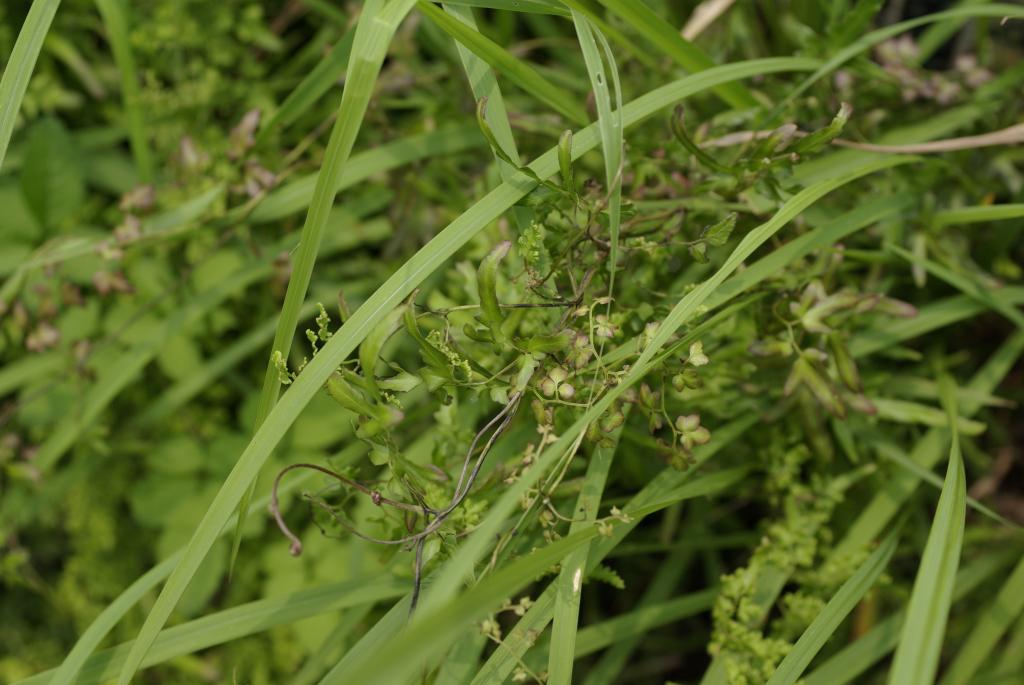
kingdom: Plantae
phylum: Tracheophyta
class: Polypodiopsida
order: Schizaeales
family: Lygodiaceae
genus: Lygodium
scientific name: Lygodium japonicum
